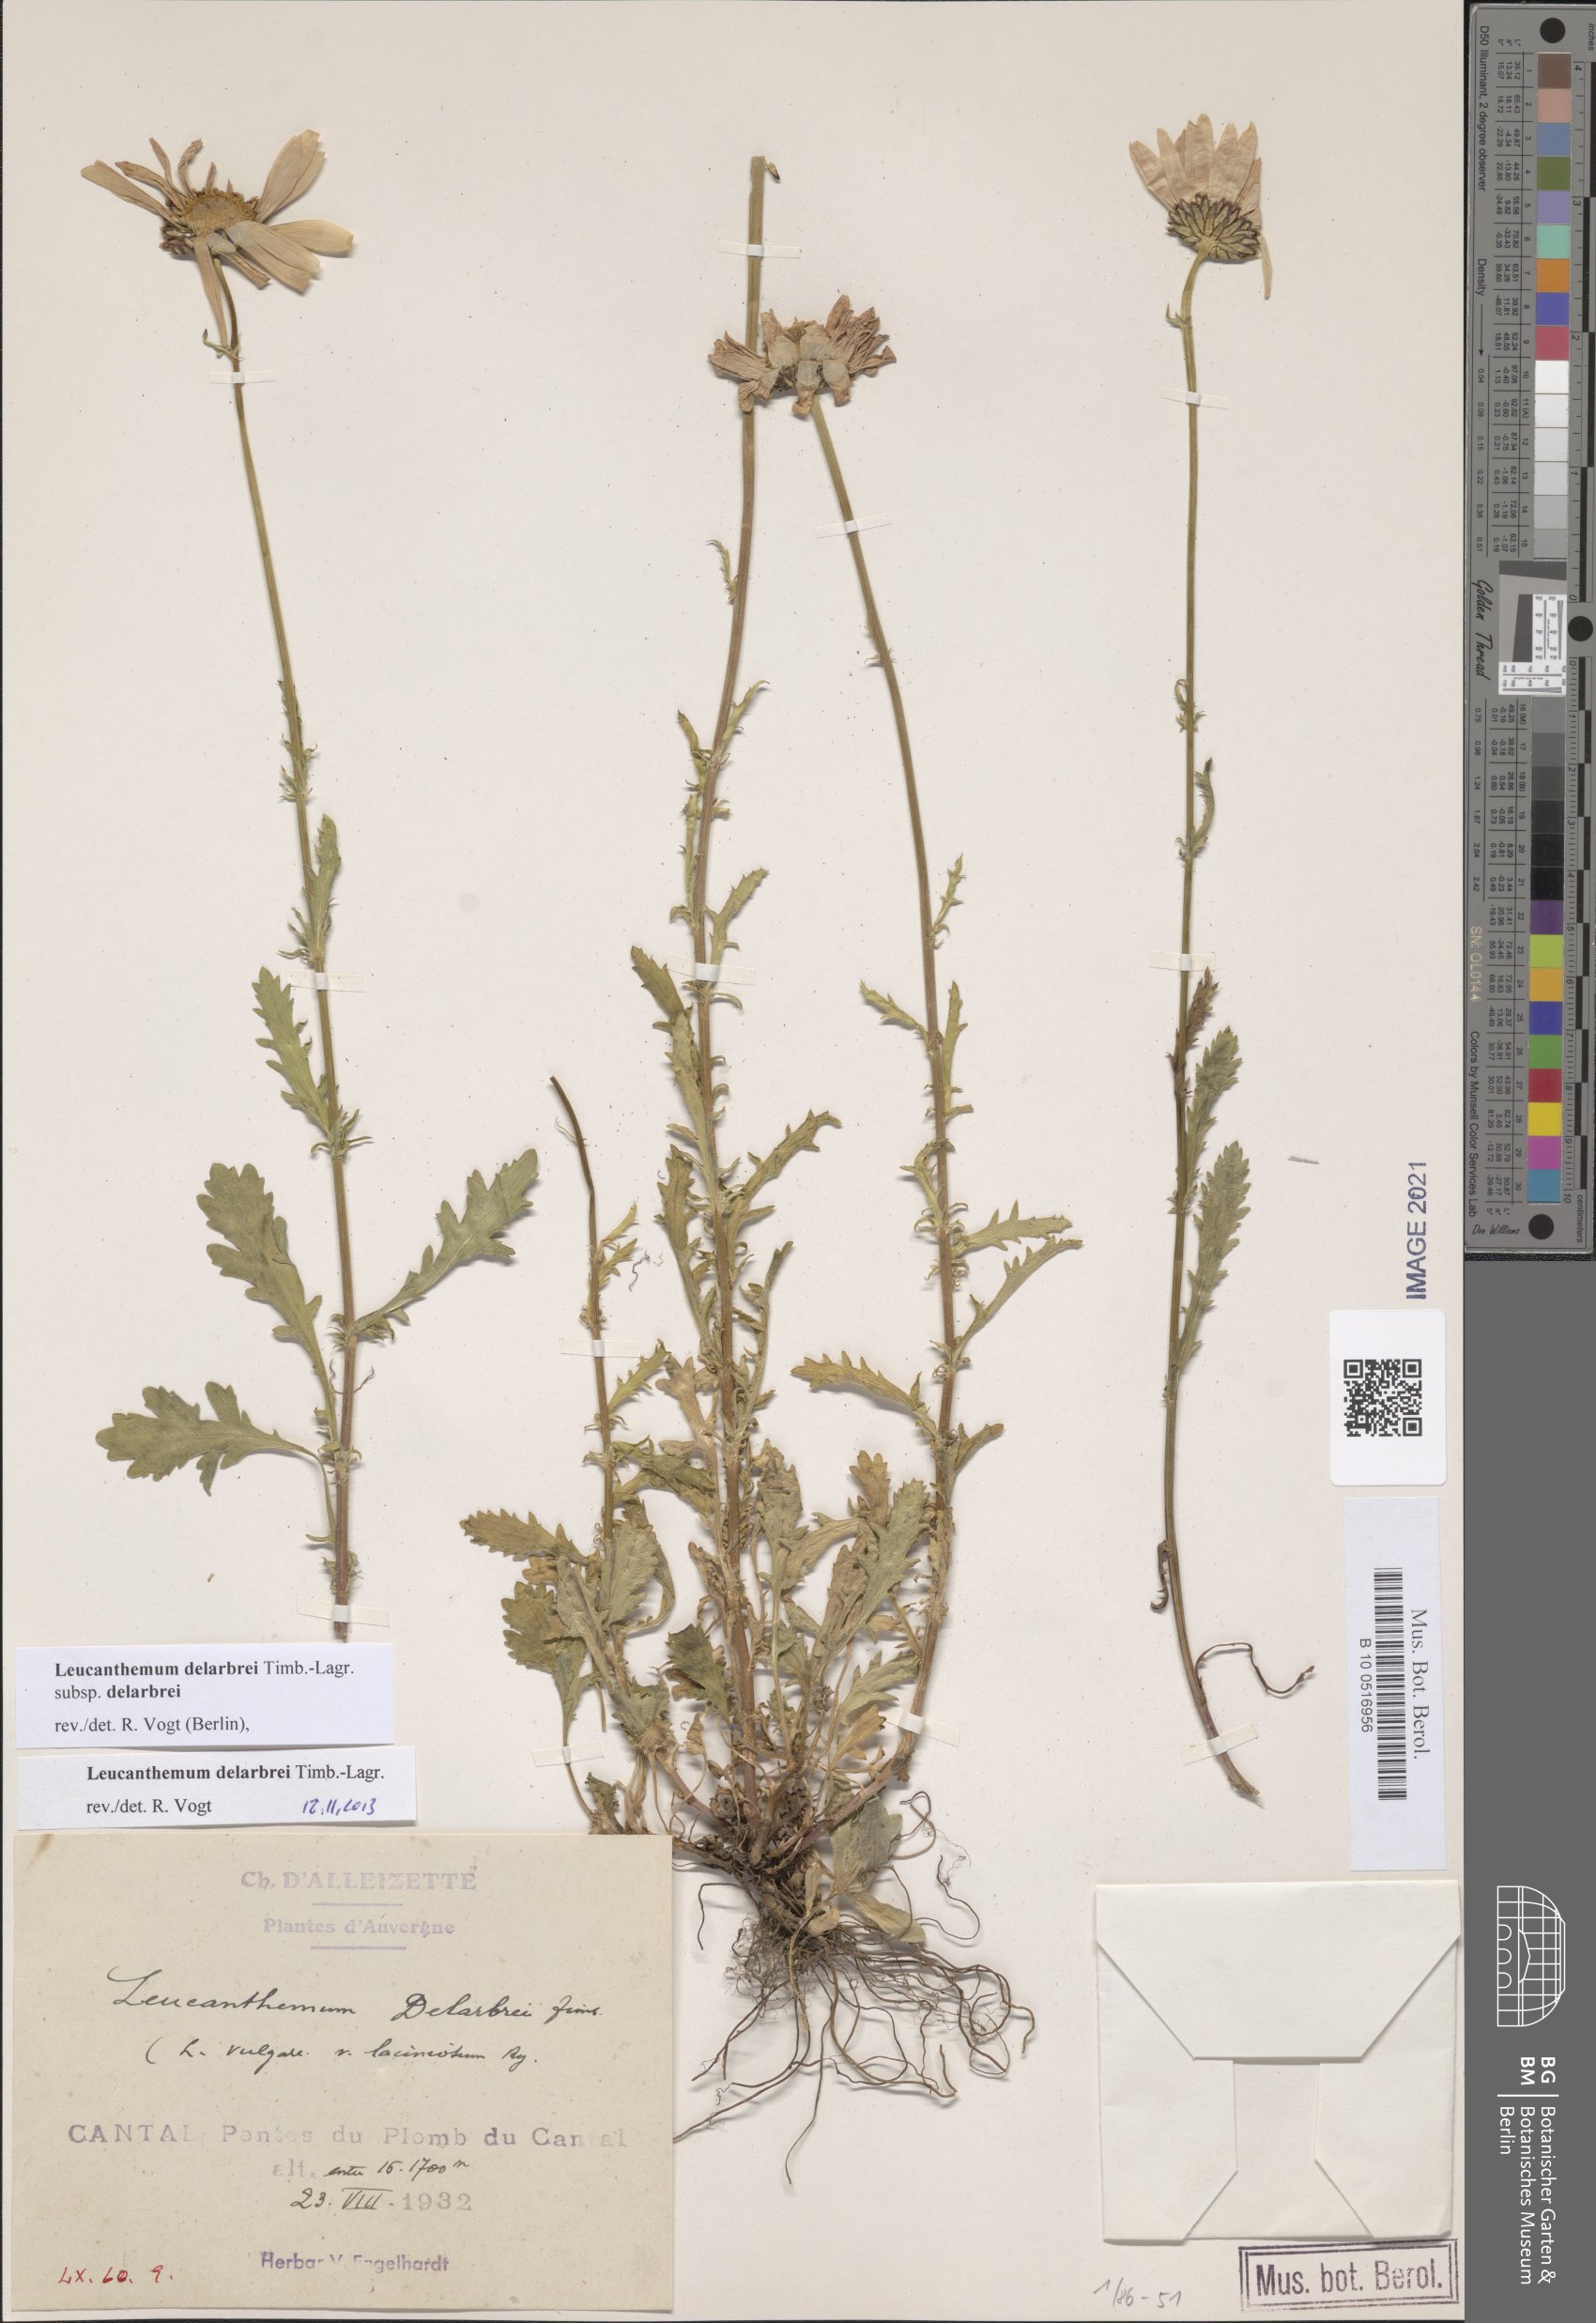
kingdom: Plantae
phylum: Tracheophyta
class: Magnoliopsida
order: Asterales
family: Asteraceae
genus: Leucanthemum
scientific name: Leucanthemum delarbrei
